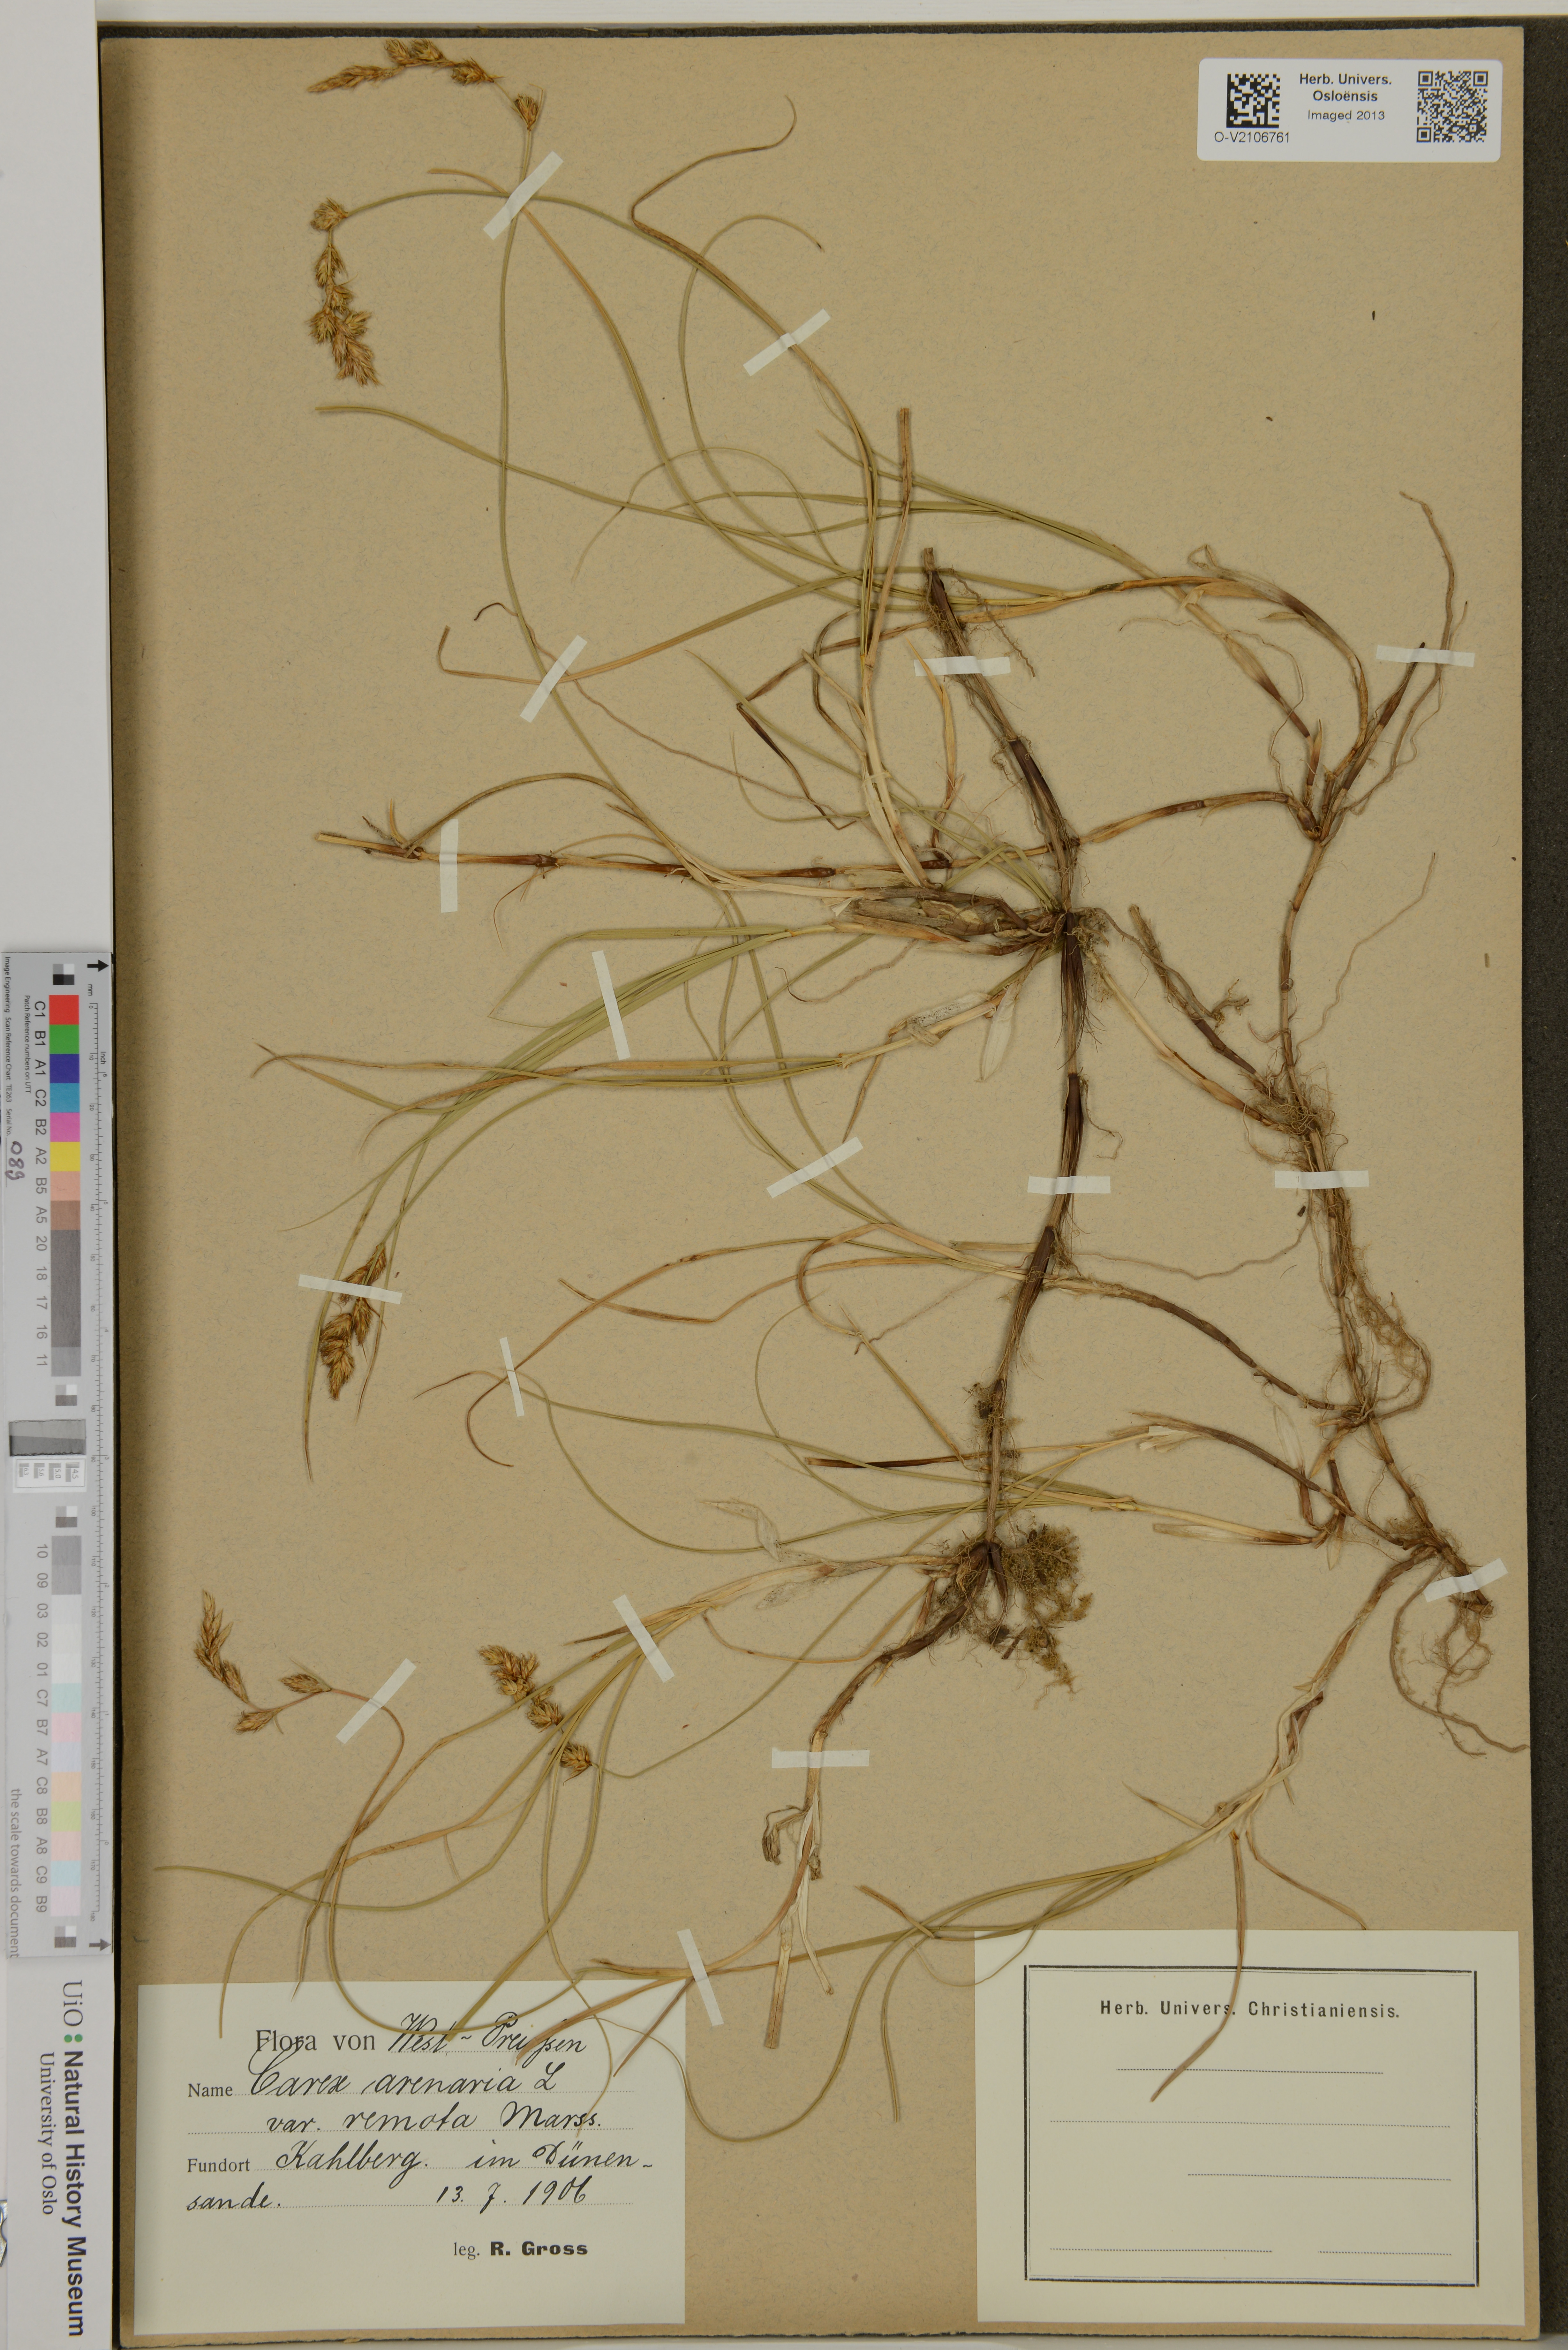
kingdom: Plantae
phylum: Tracheophyta
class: Liliopsida
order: Poales
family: Cyperaceae
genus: Carex
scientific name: Carex arenaria
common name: Sand sedge
